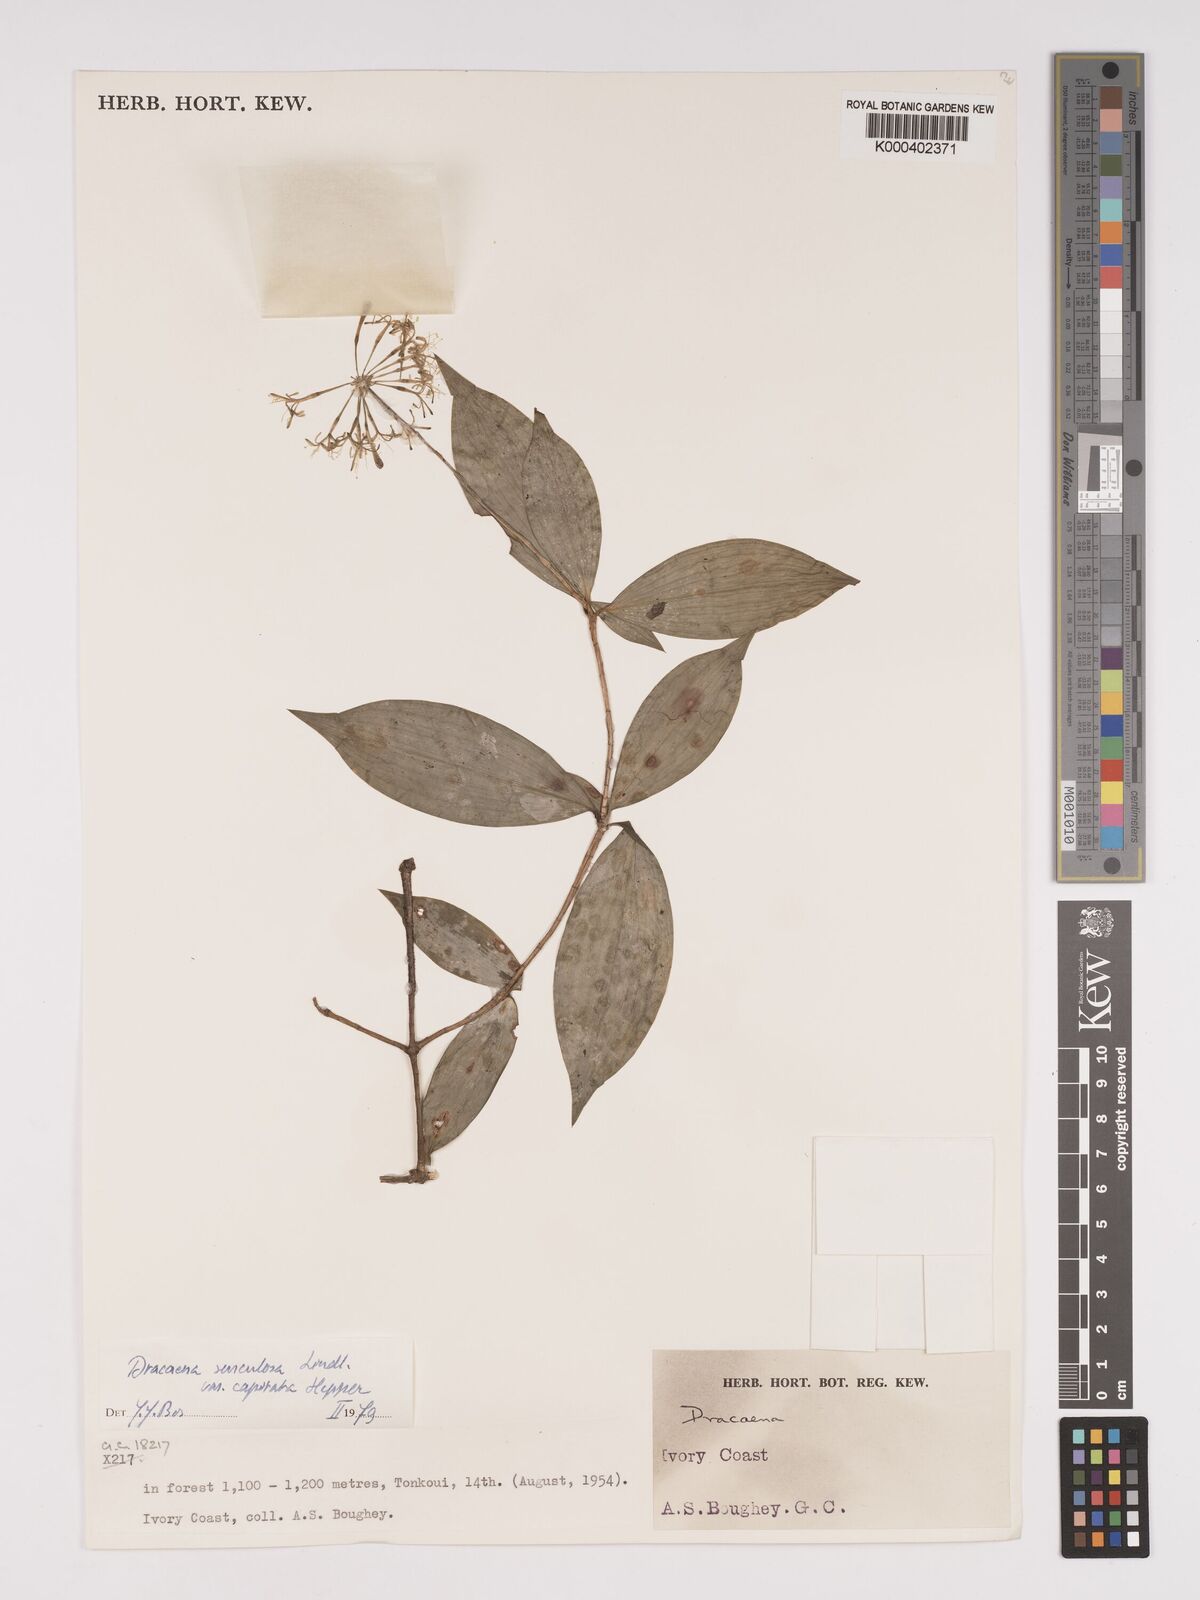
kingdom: Plantae
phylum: Tracheophyta
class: Liliopsida
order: Asparagales
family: Asparagaceae
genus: Dracaena
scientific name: Dracaena surculosa
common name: Spotted dracaena
